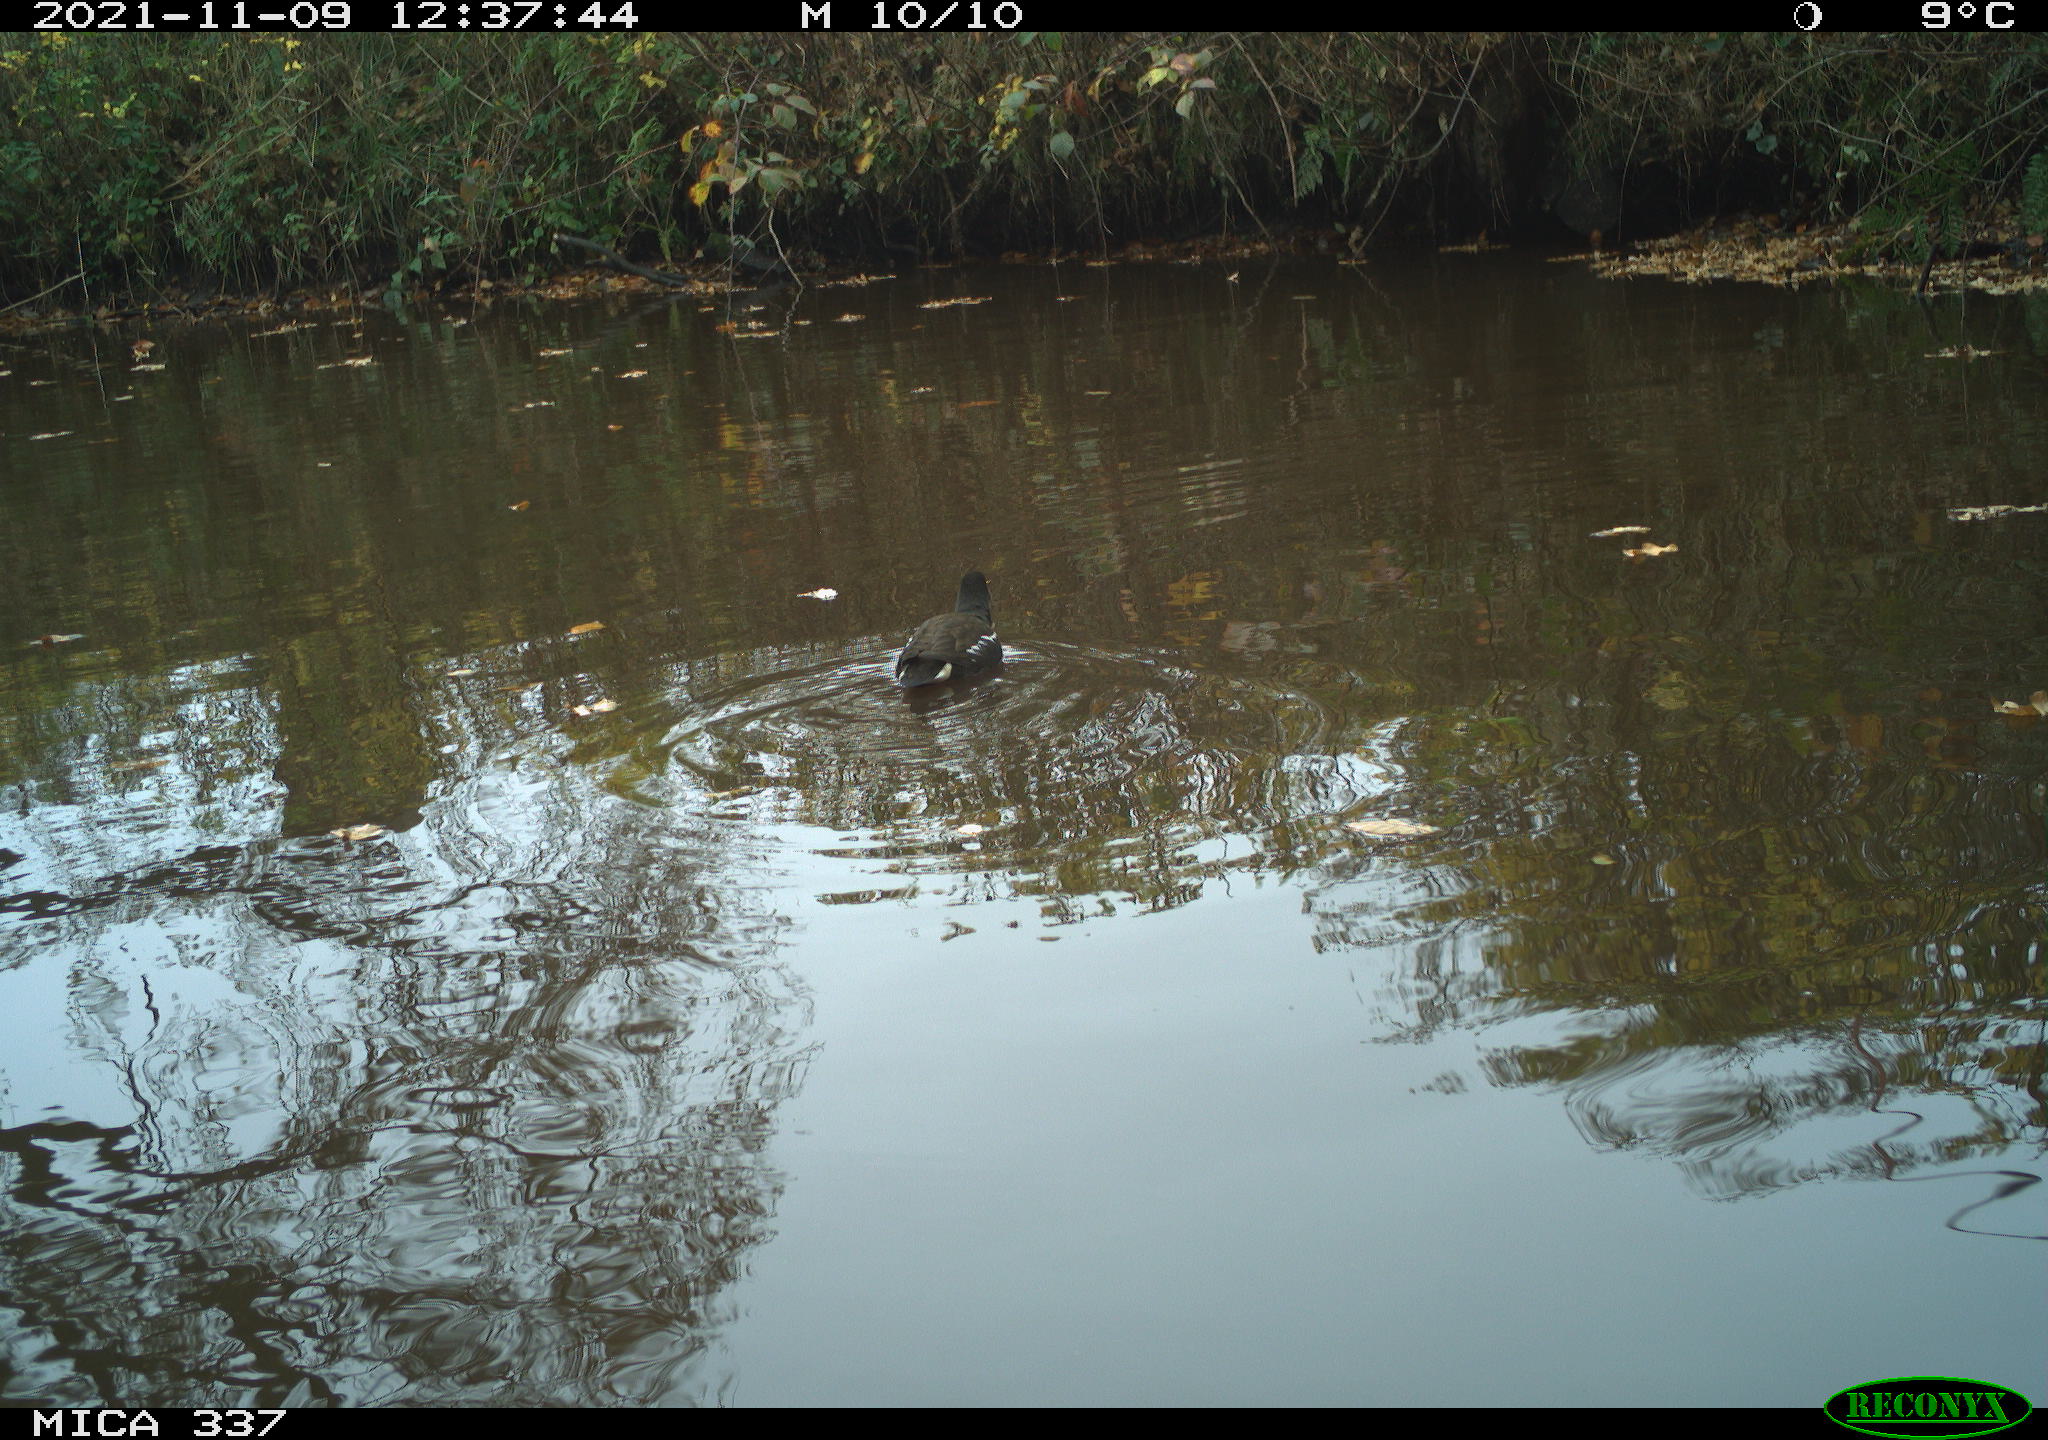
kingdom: Animalia
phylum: Chordata
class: Aves
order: Gruiformes
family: Rallidae
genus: Gallinula
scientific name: Gallinula chloropus
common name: Common moorhen
